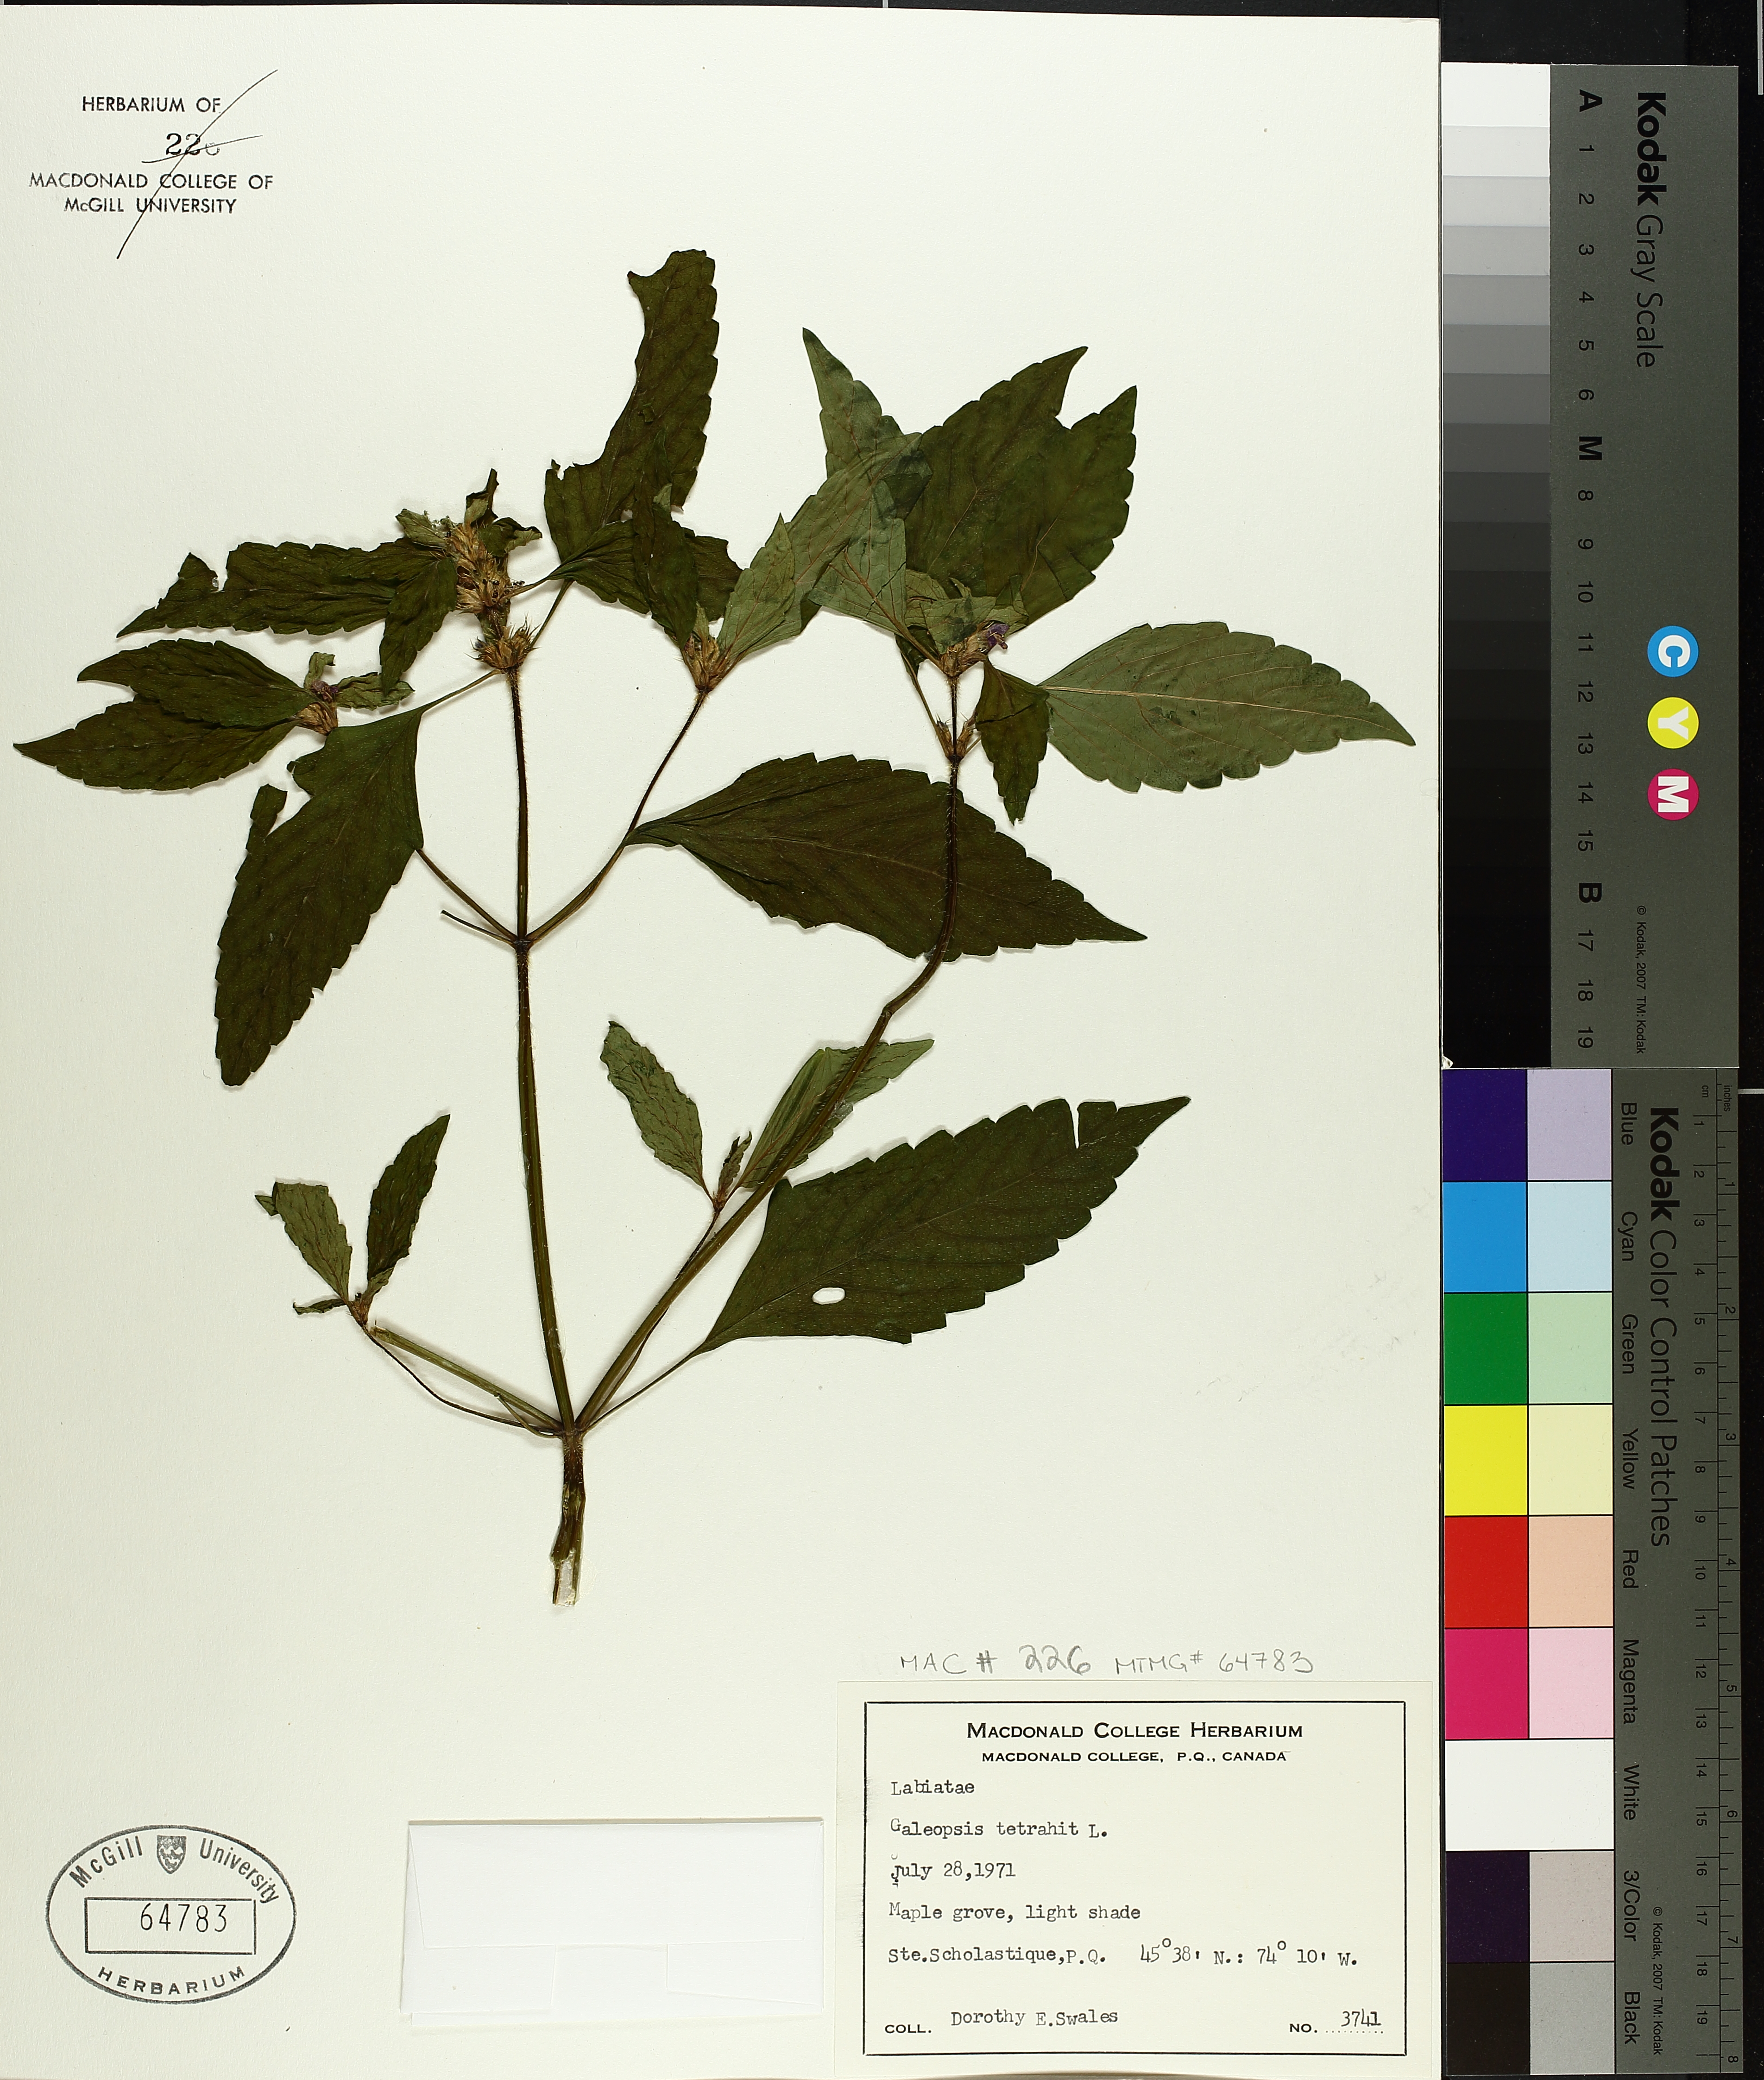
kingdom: Plantae
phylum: Tracheophyta
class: Magnoliopsida
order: Lamiales
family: Lamiaceae
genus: Galeopsis
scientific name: Galeopsis tetrahit
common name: Common hemp-nettle
